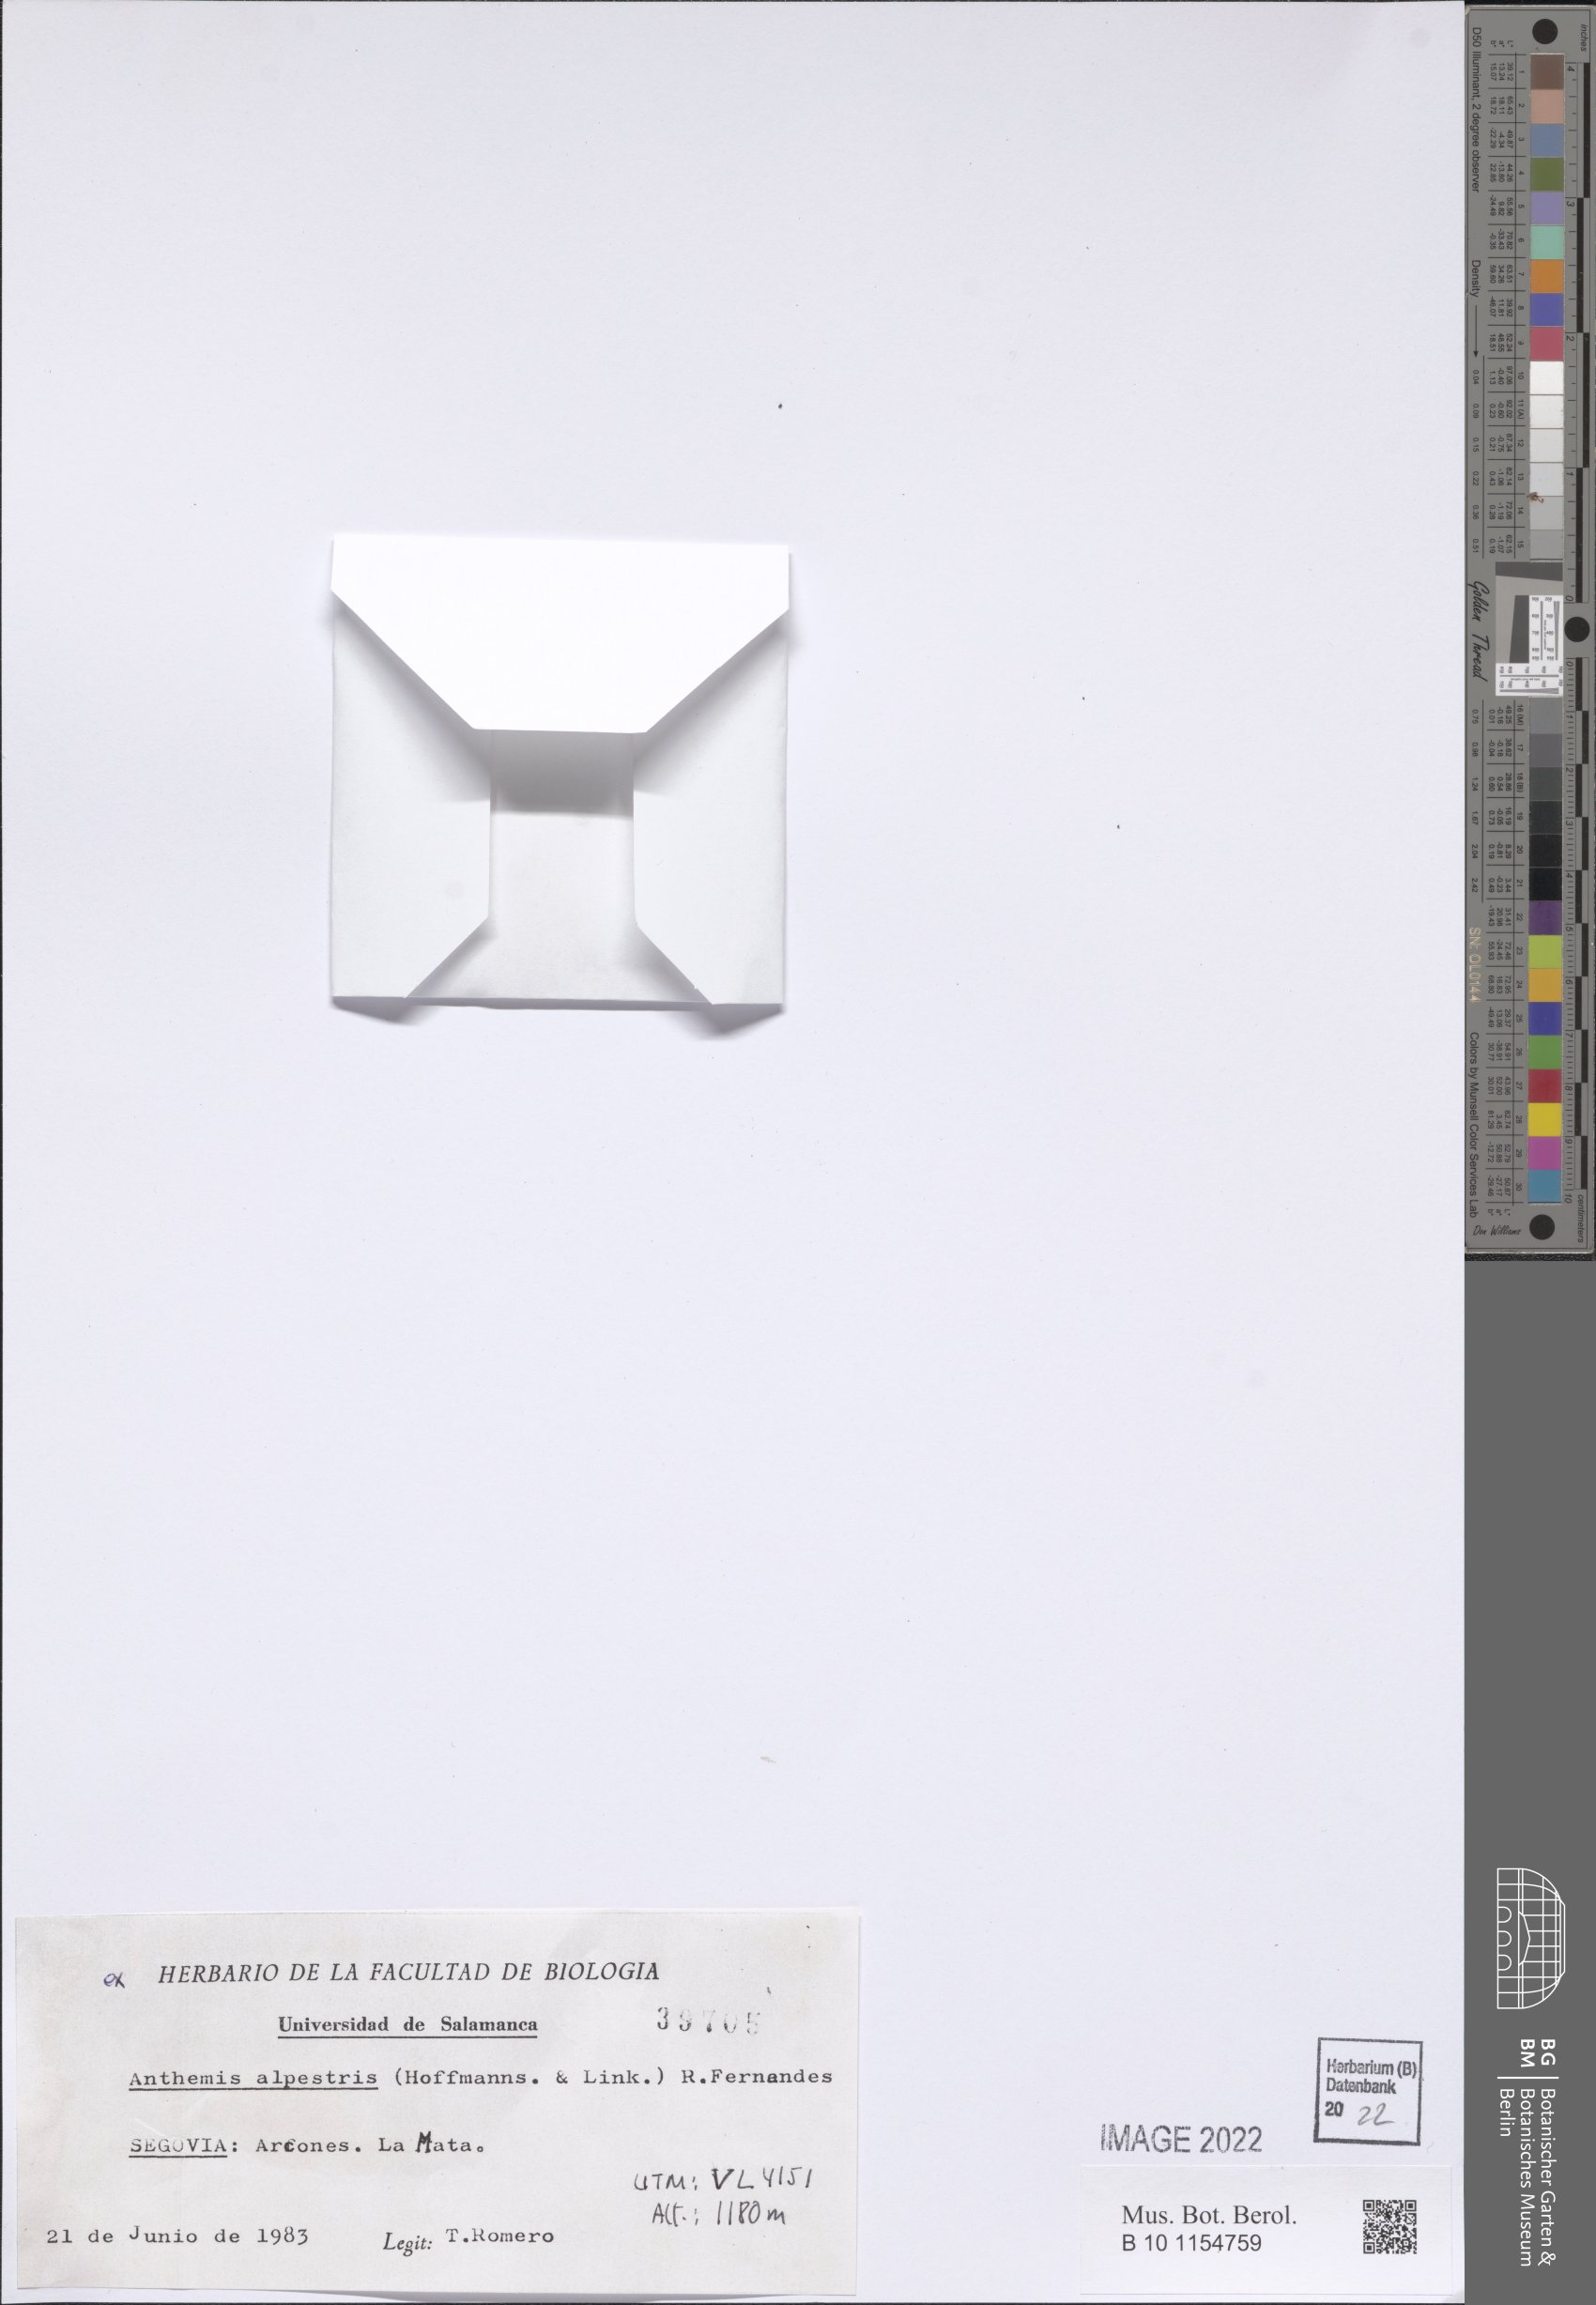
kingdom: Plantae
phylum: Tracheophyta
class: Magnoliopsida
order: Asterales
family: Asteraceae
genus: Anthemis
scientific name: Anthemis alpestris
